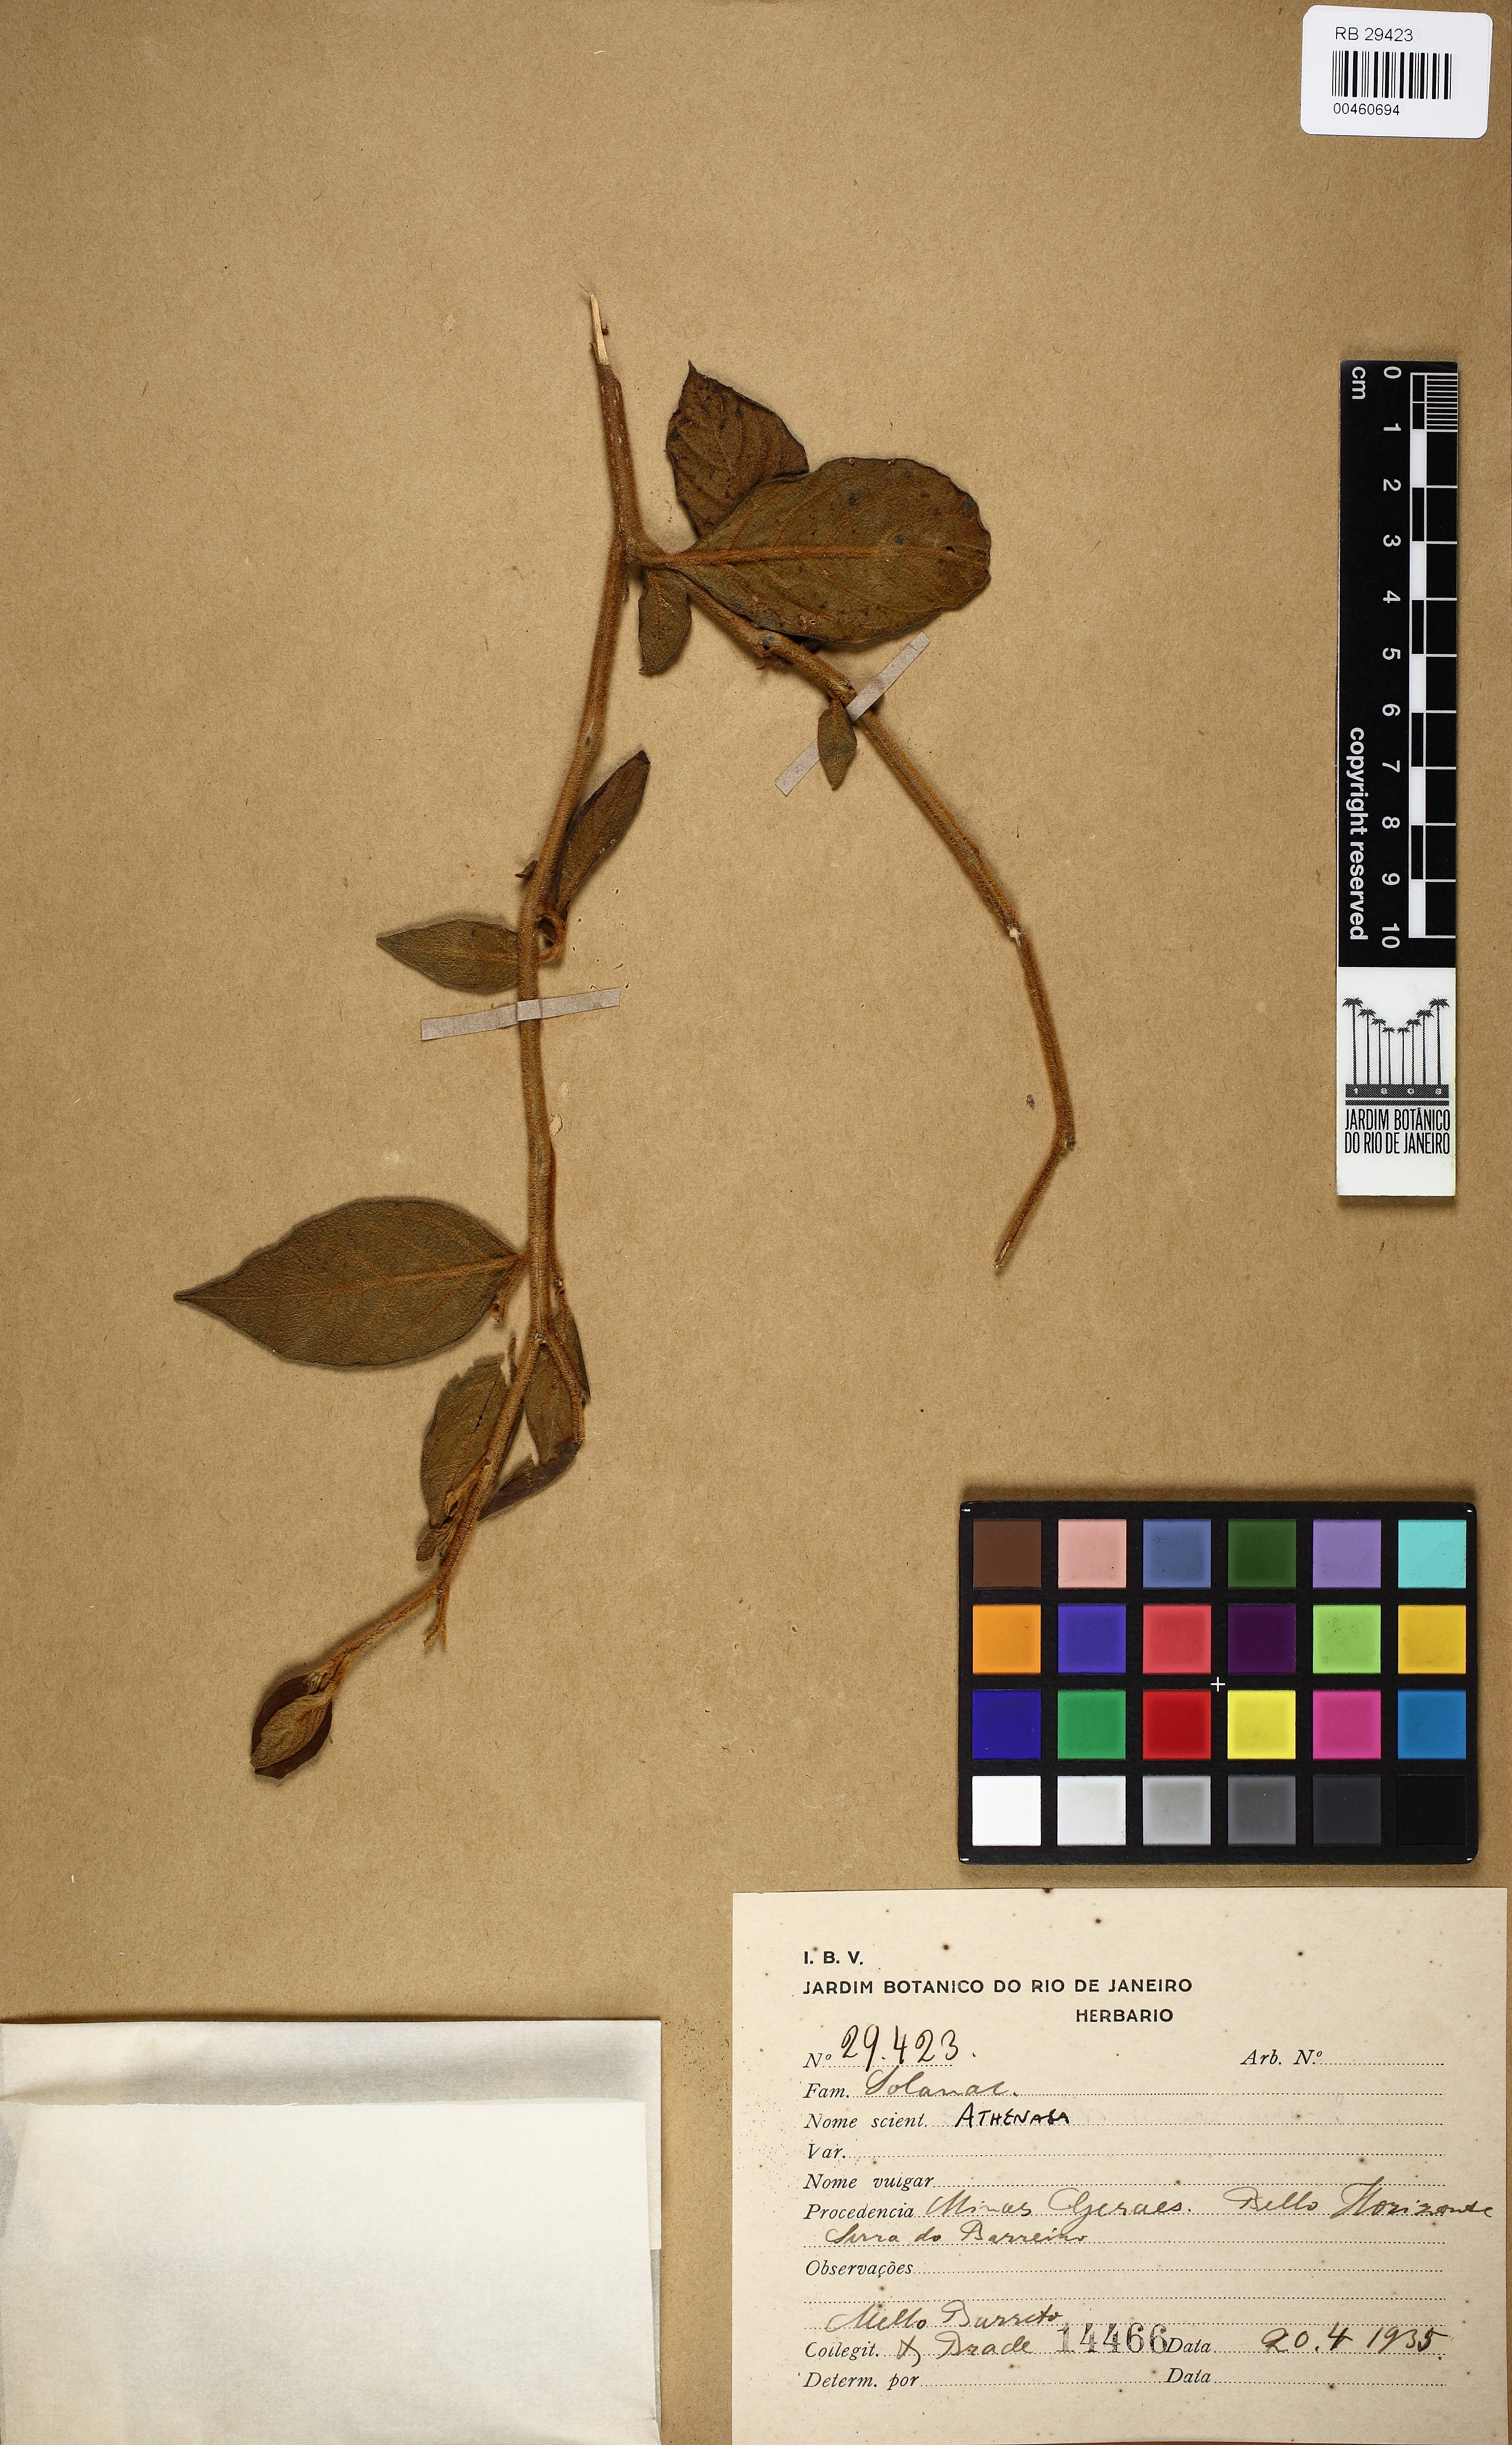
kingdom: Plantae
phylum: Tracheophyta
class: Magnoliopsida
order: Solanales
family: Solanaceae
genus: Athenaea
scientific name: Athenaea
